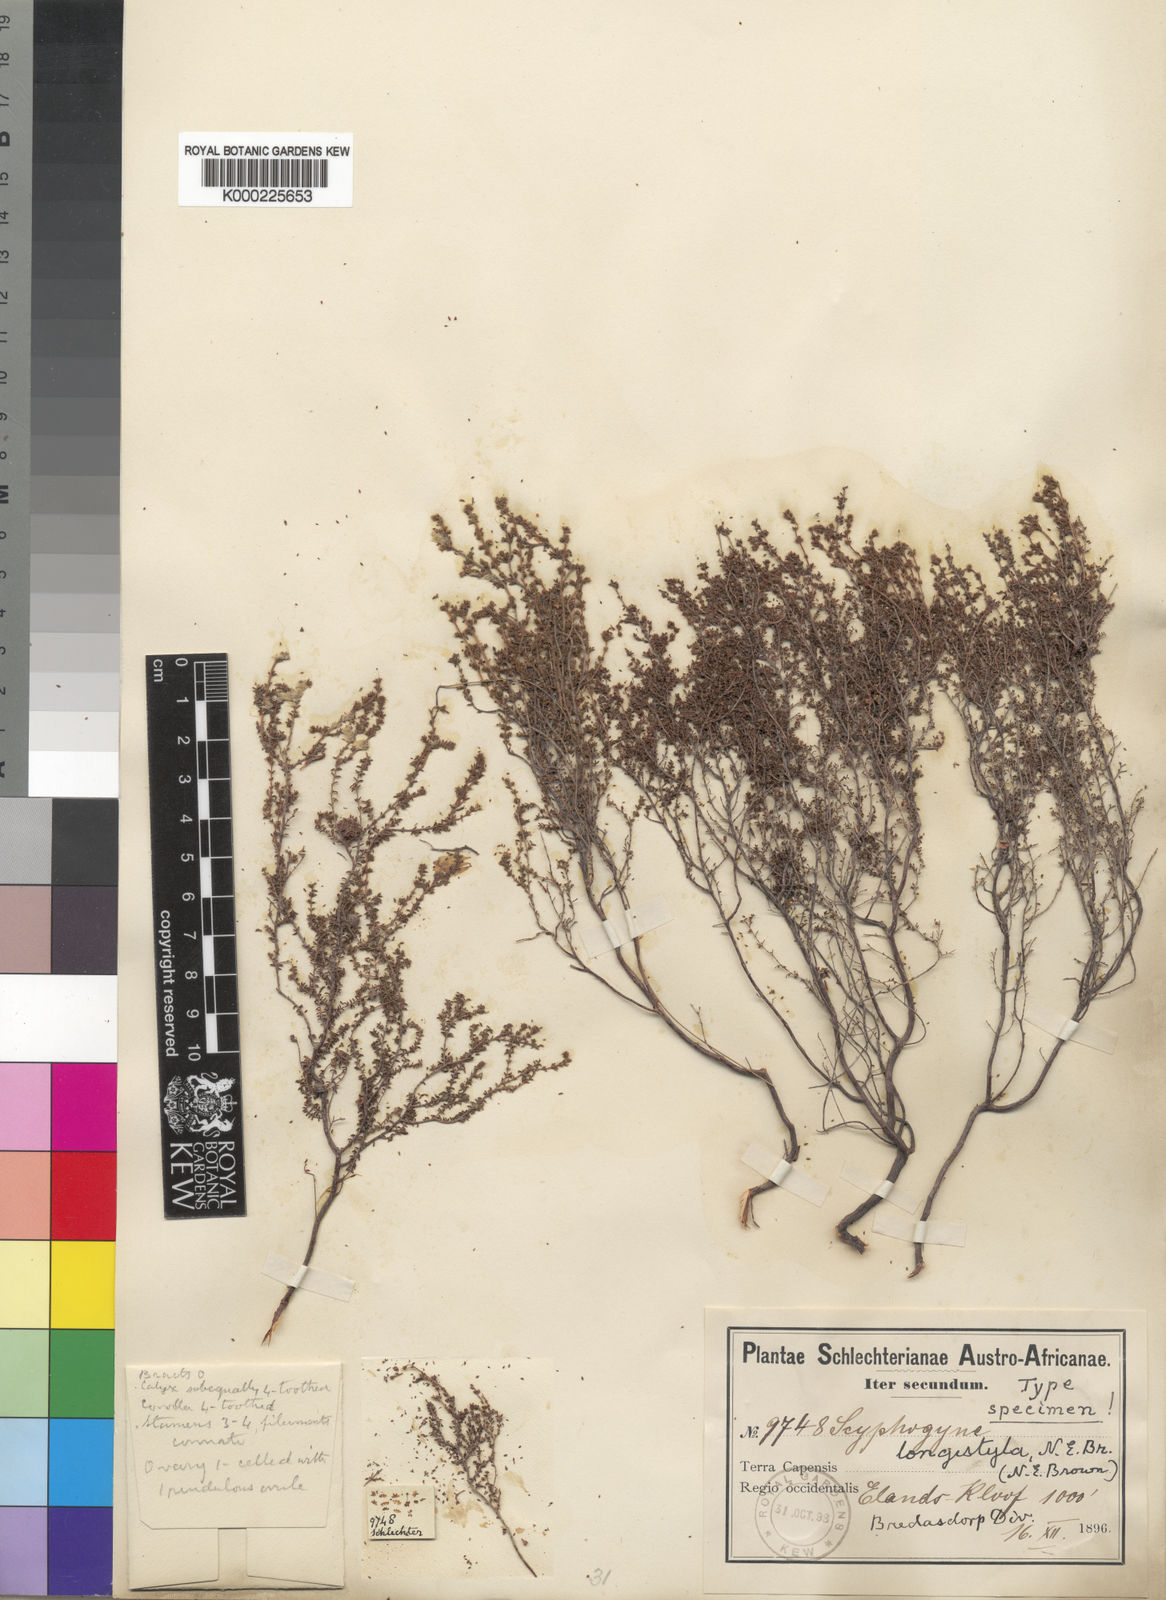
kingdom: Plantae
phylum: Tracheophyta
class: Magnoliopsida
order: Ericales
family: Ericaceae
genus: Erica
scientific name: Erica rigidula
